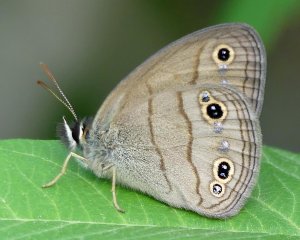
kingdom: Animalia
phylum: Arthropoda
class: Insecta
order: Lepidoptera
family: Nymphalidae
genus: Euptychia
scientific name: Euptychia cymela
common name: Little Wood Satyr
